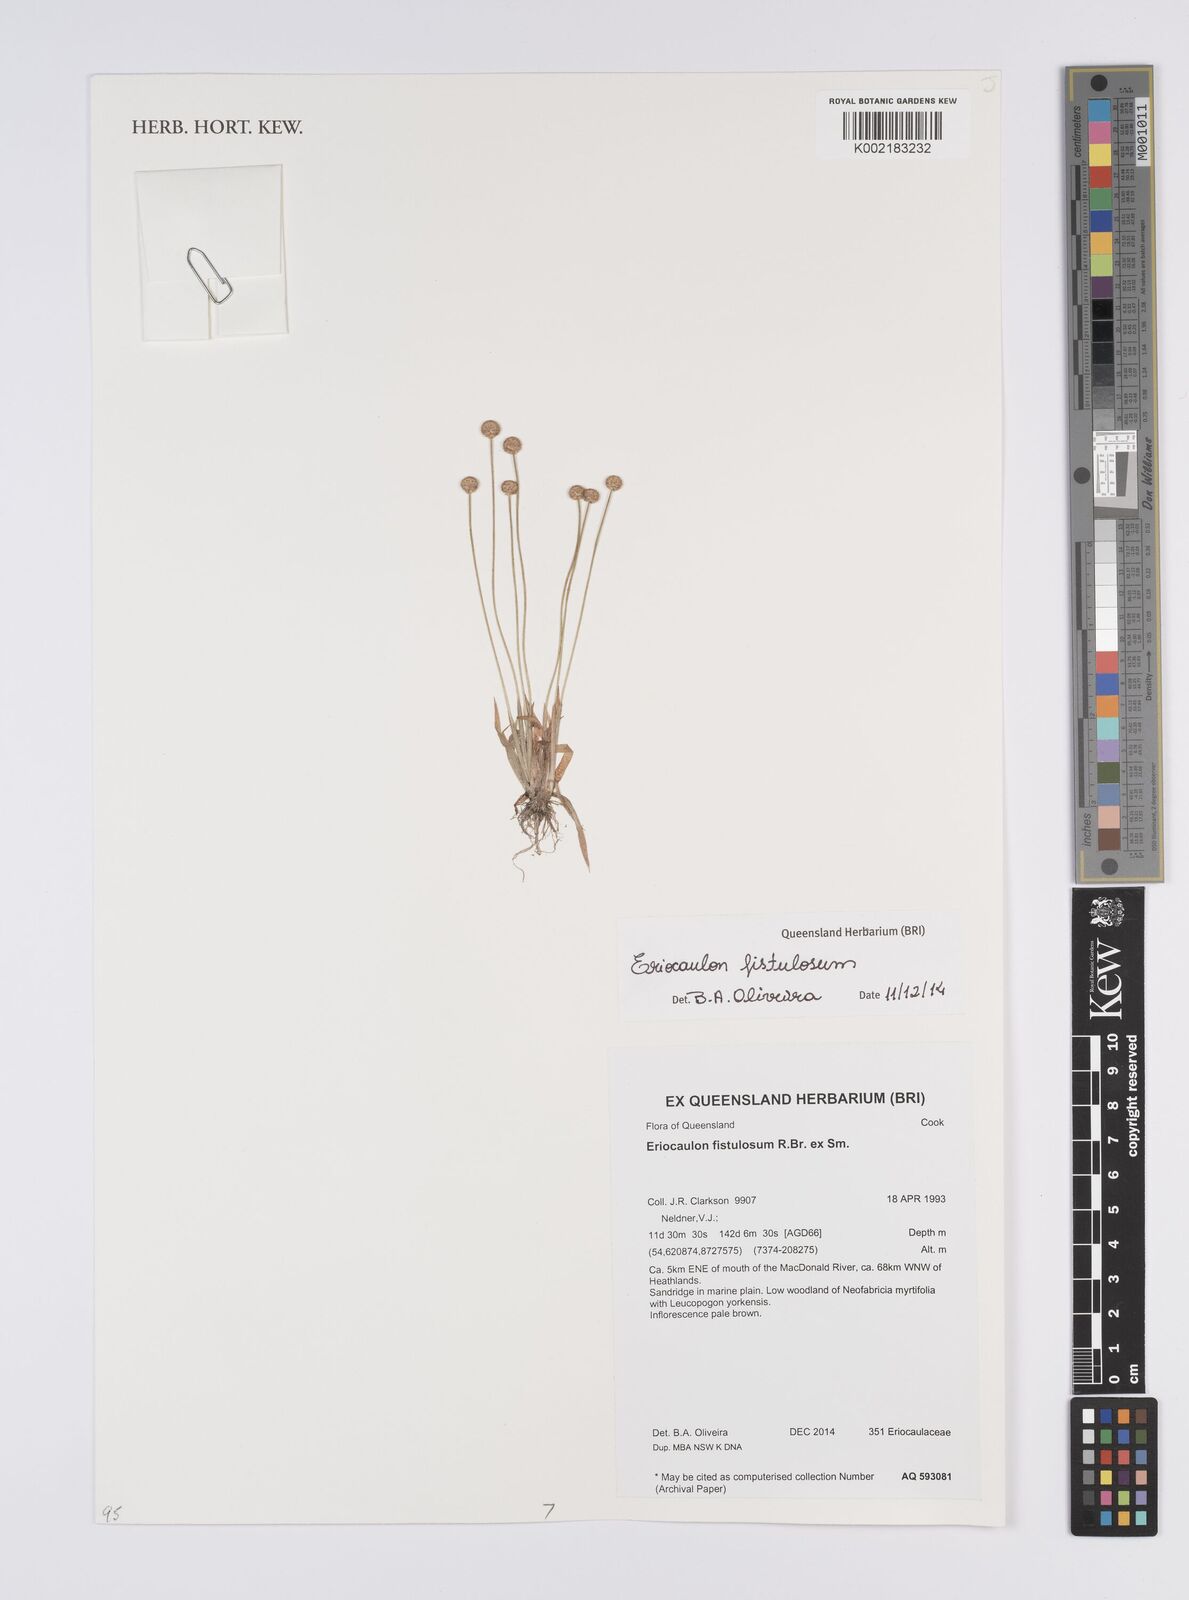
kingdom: Plantae
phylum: Tracheophyta
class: Liliopsida
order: Poales
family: Eriocaulaceae
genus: Eriocaulon
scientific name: Eriocaulon fistulosum
